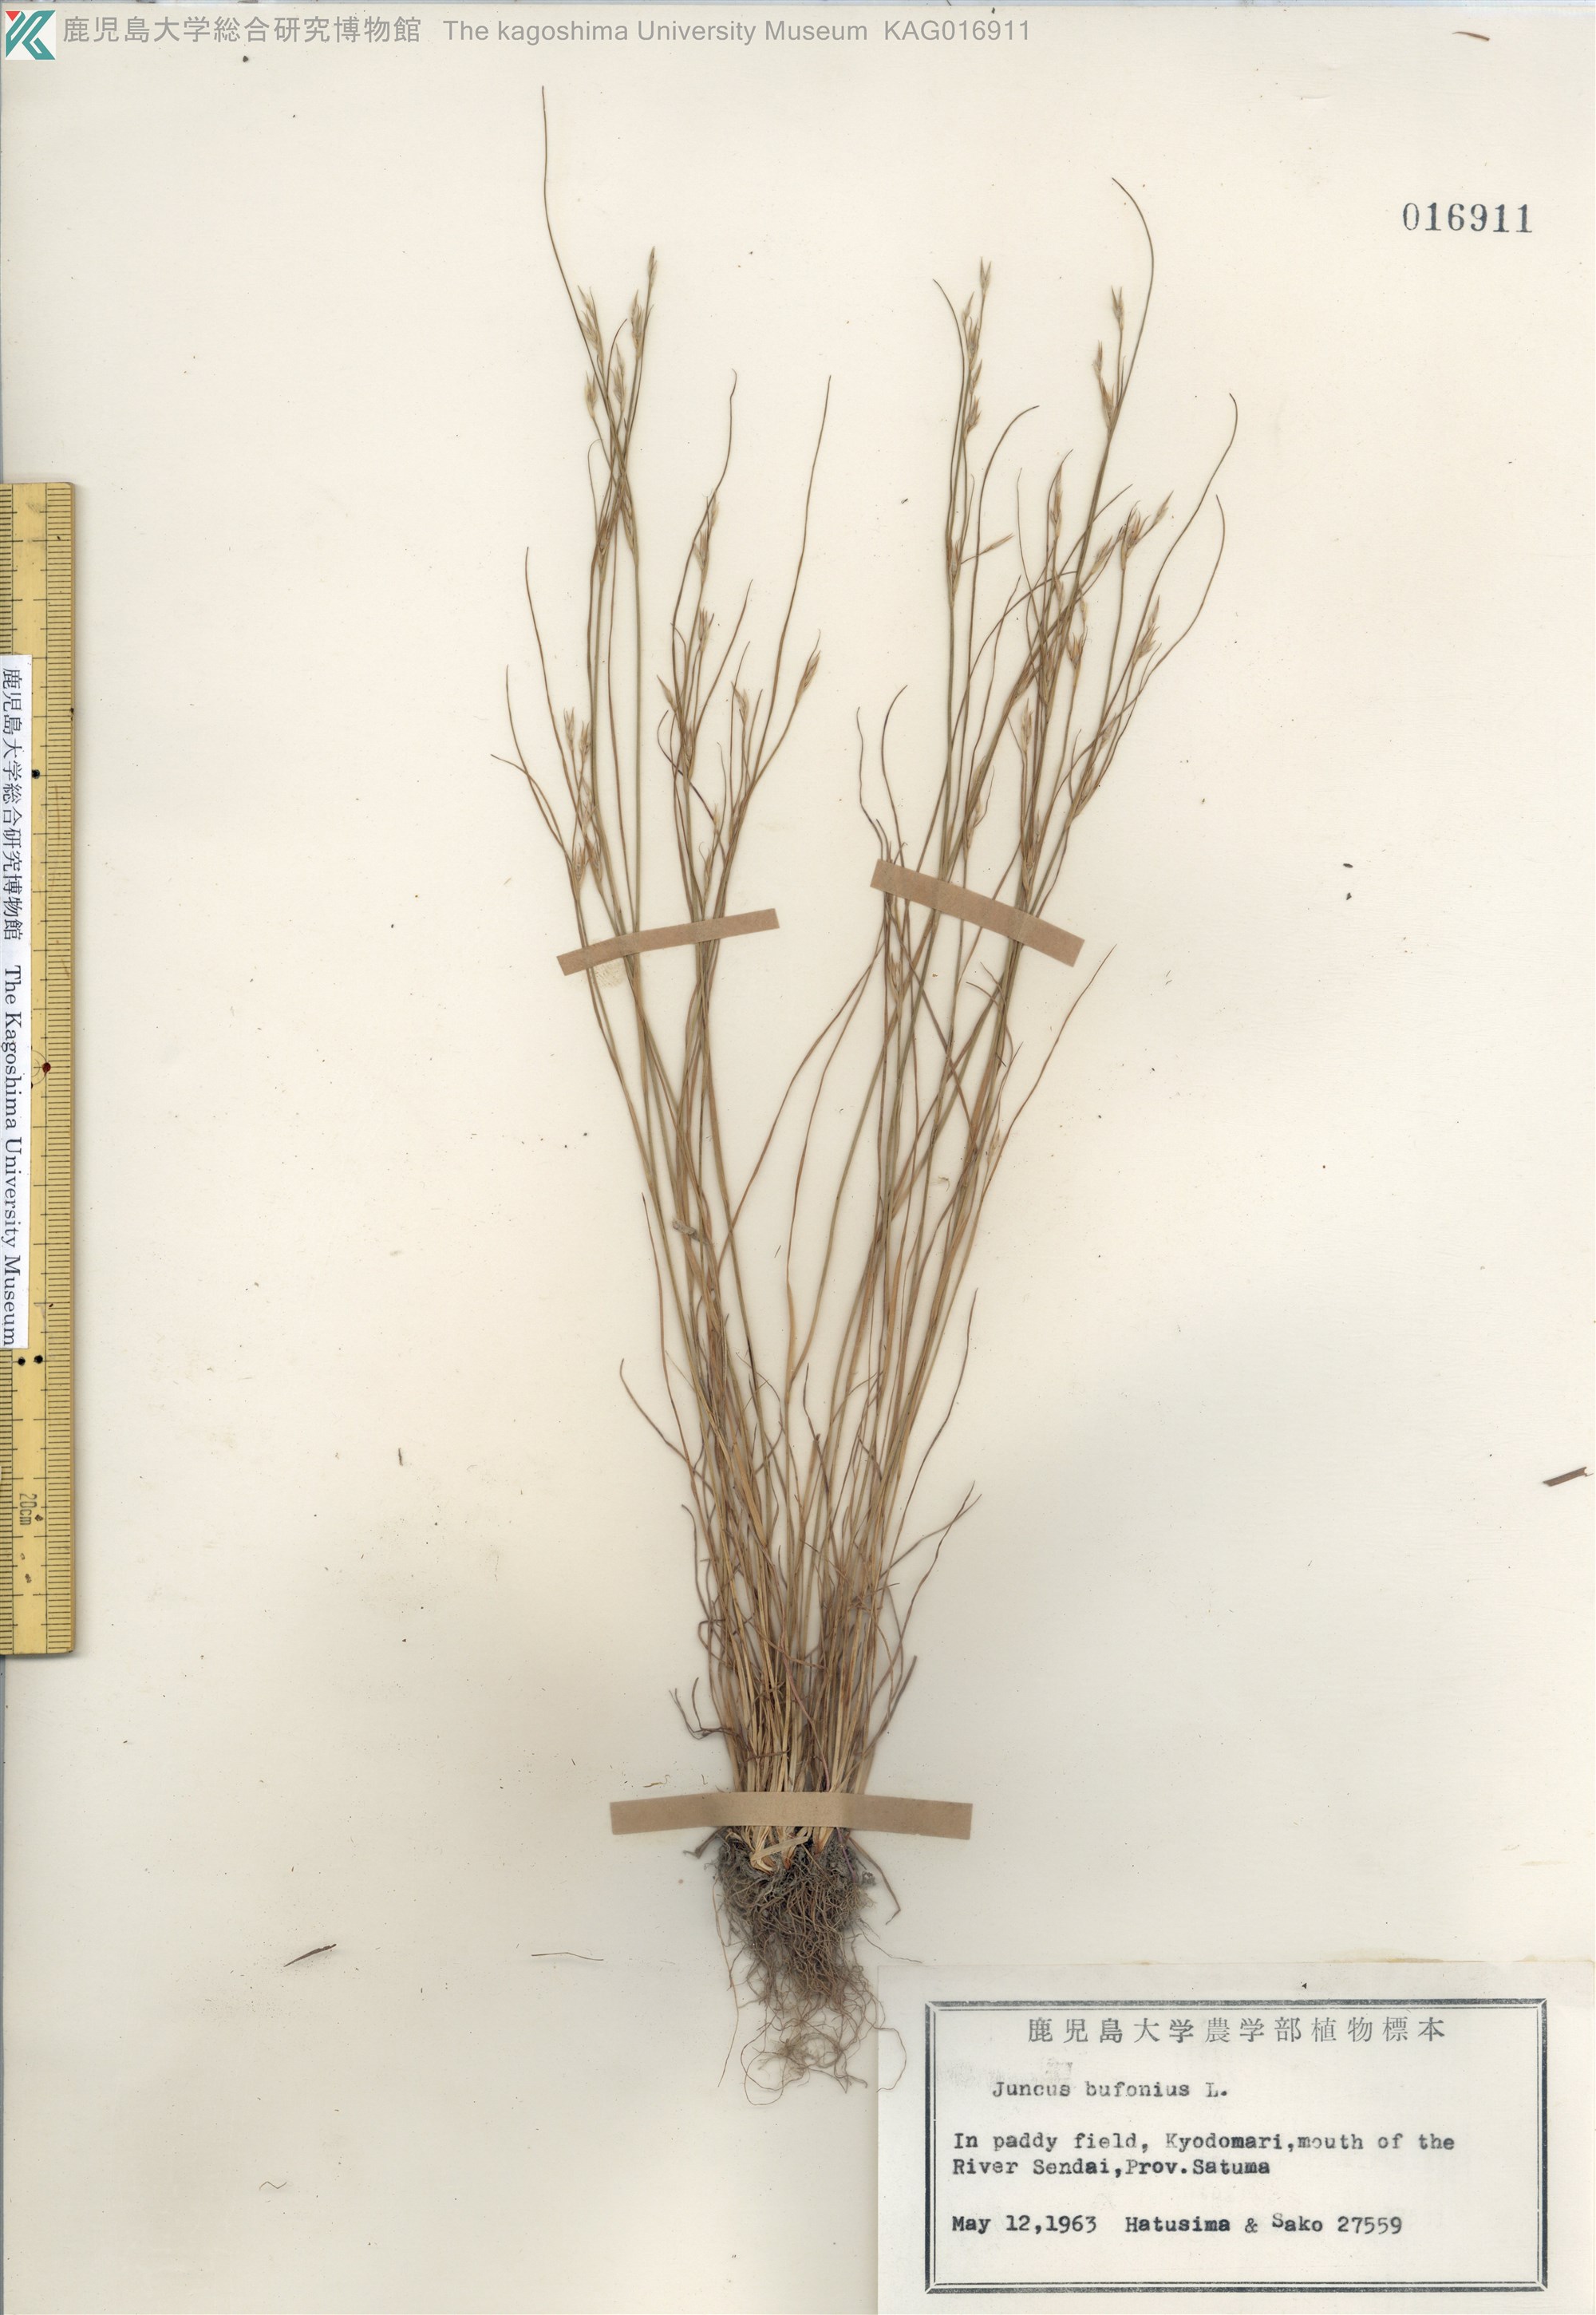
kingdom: Plantae
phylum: Tracheophyta
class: Liliopsida
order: Poales
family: Juncaceae
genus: Juncus
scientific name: Juncus bufonius
